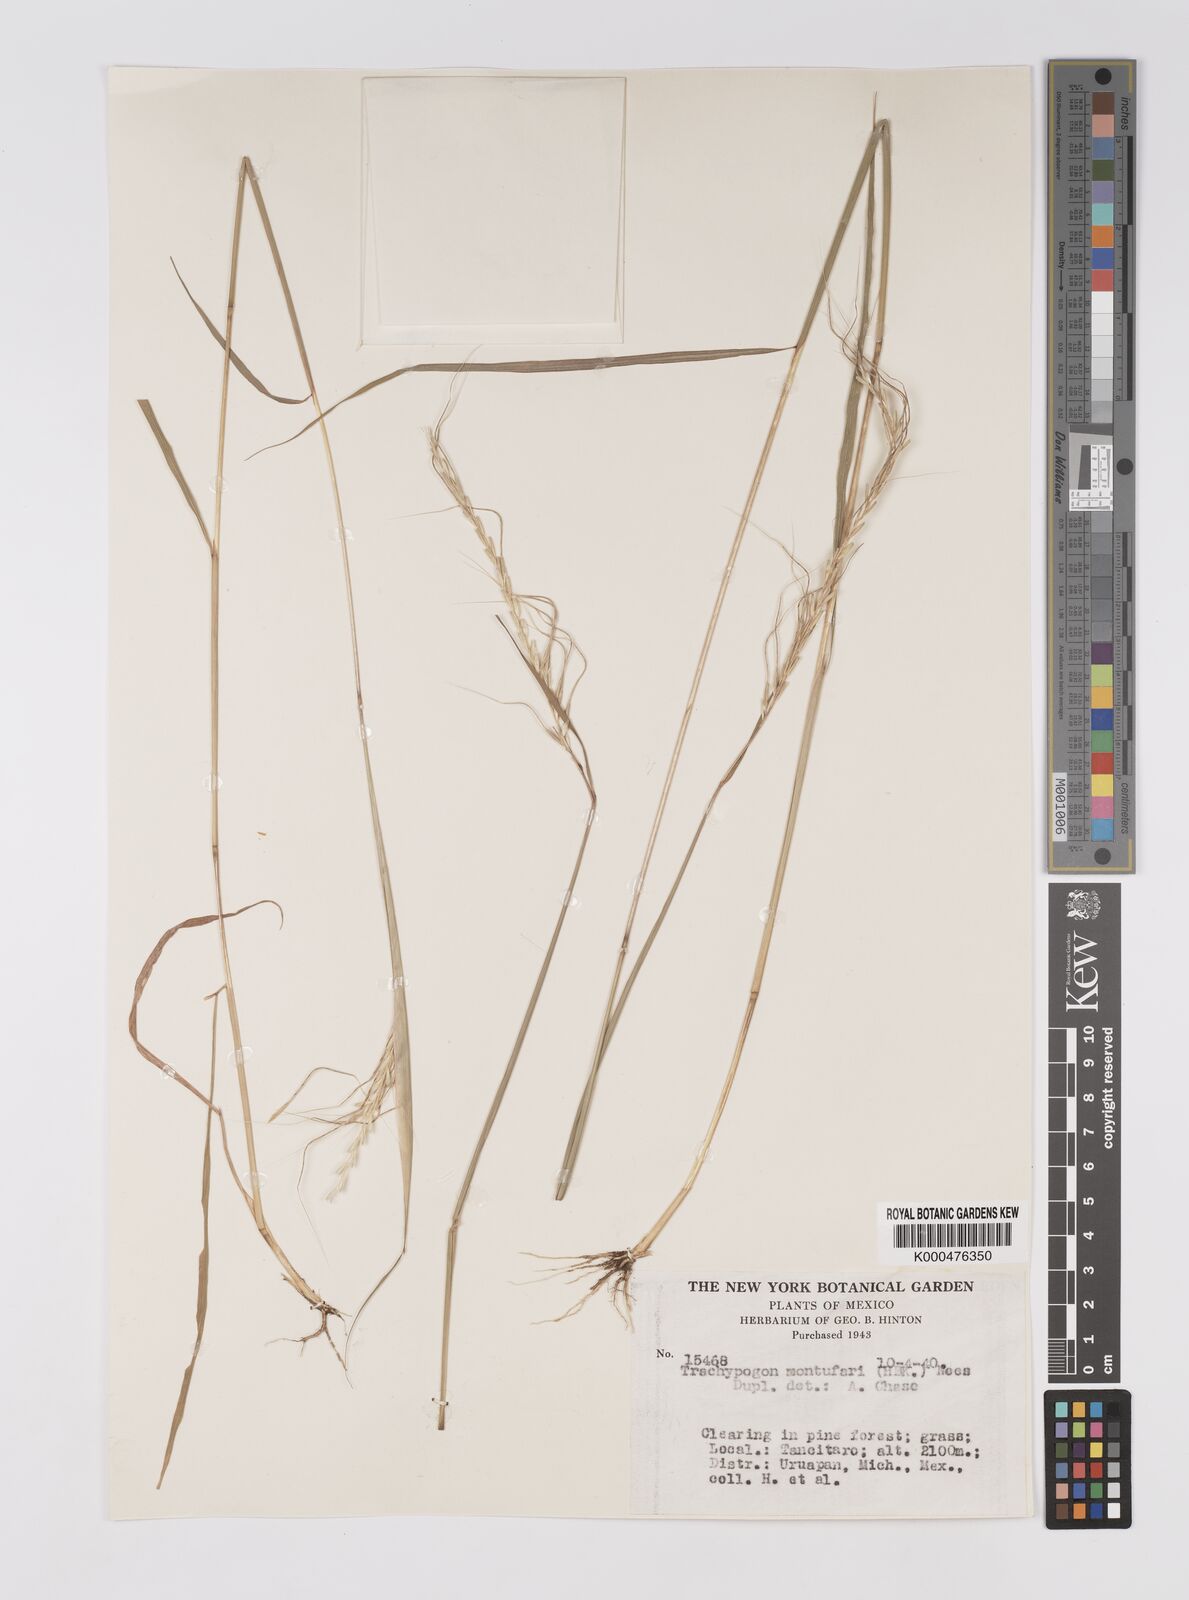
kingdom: Plantae
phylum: Tracheophyta
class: Liliopsida
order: Poales
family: Poaceae
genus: Trachypogon
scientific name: Trachypogon spicatus
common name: Crinkle-awn
